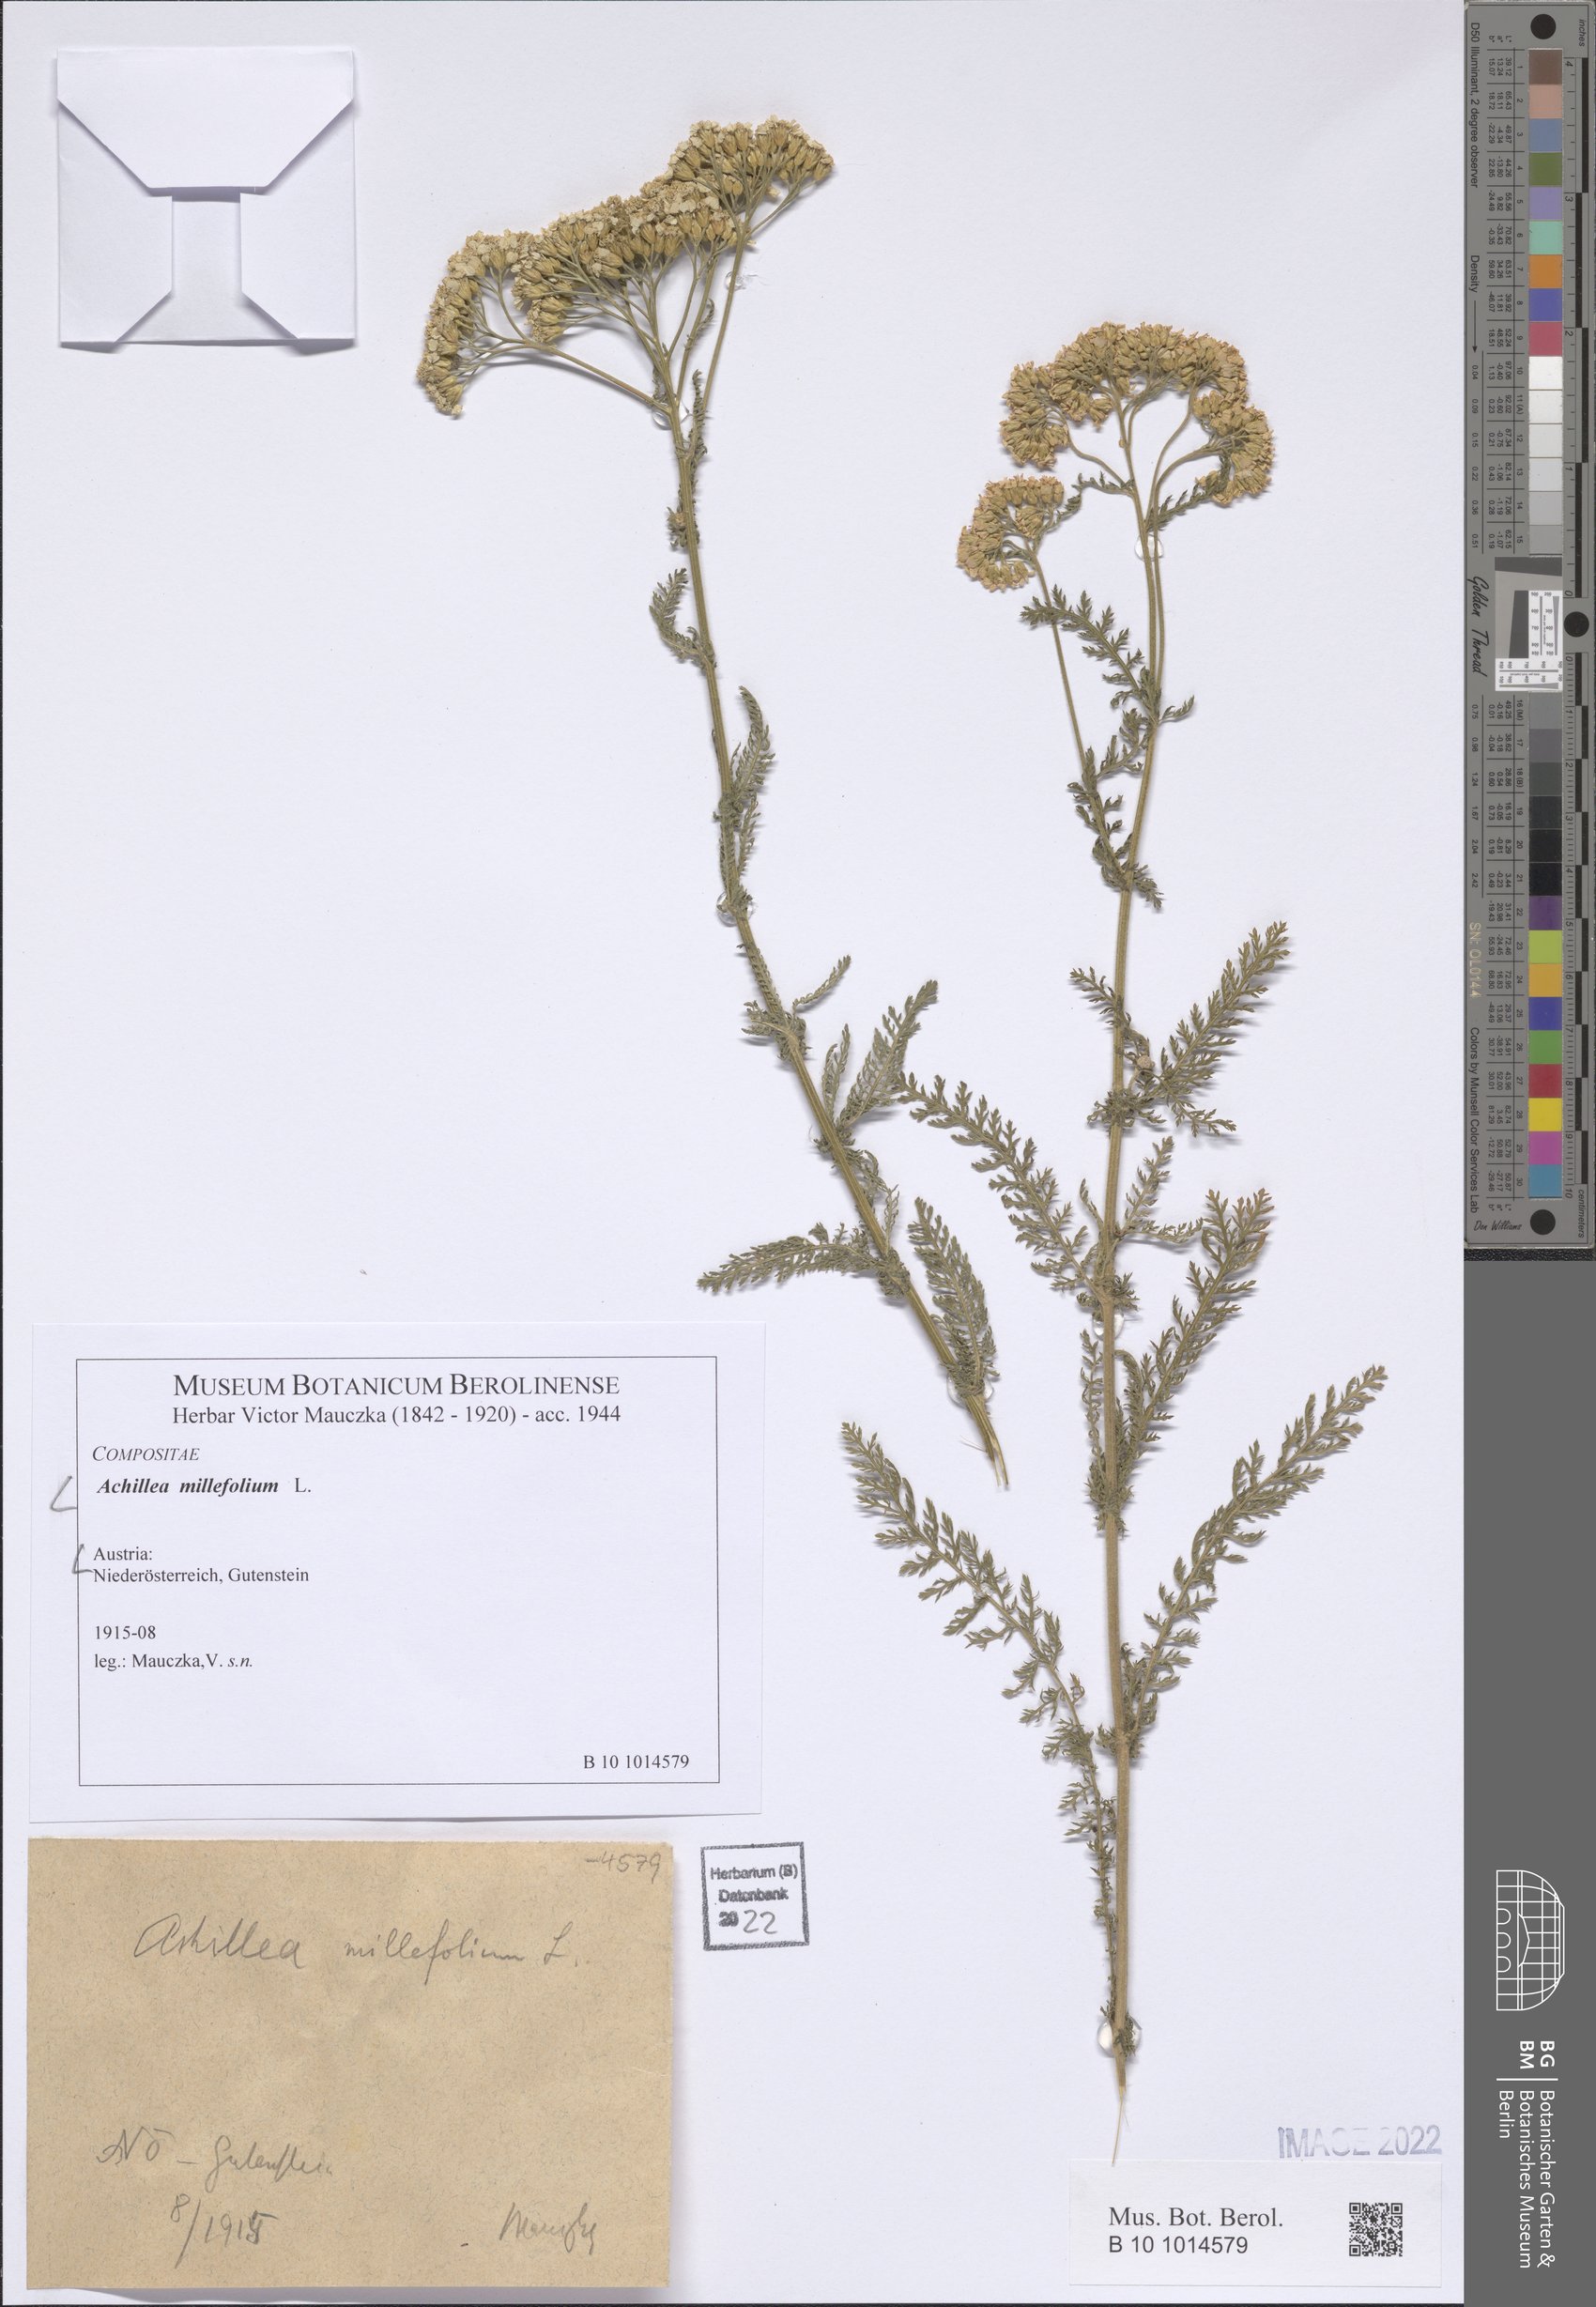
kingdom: Plantae
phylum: Tracheophyta
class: Magnoliopsida
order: Asterales
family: Asteraceae
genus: Achillea
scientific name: Achillea millefolium
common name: Yarrow
